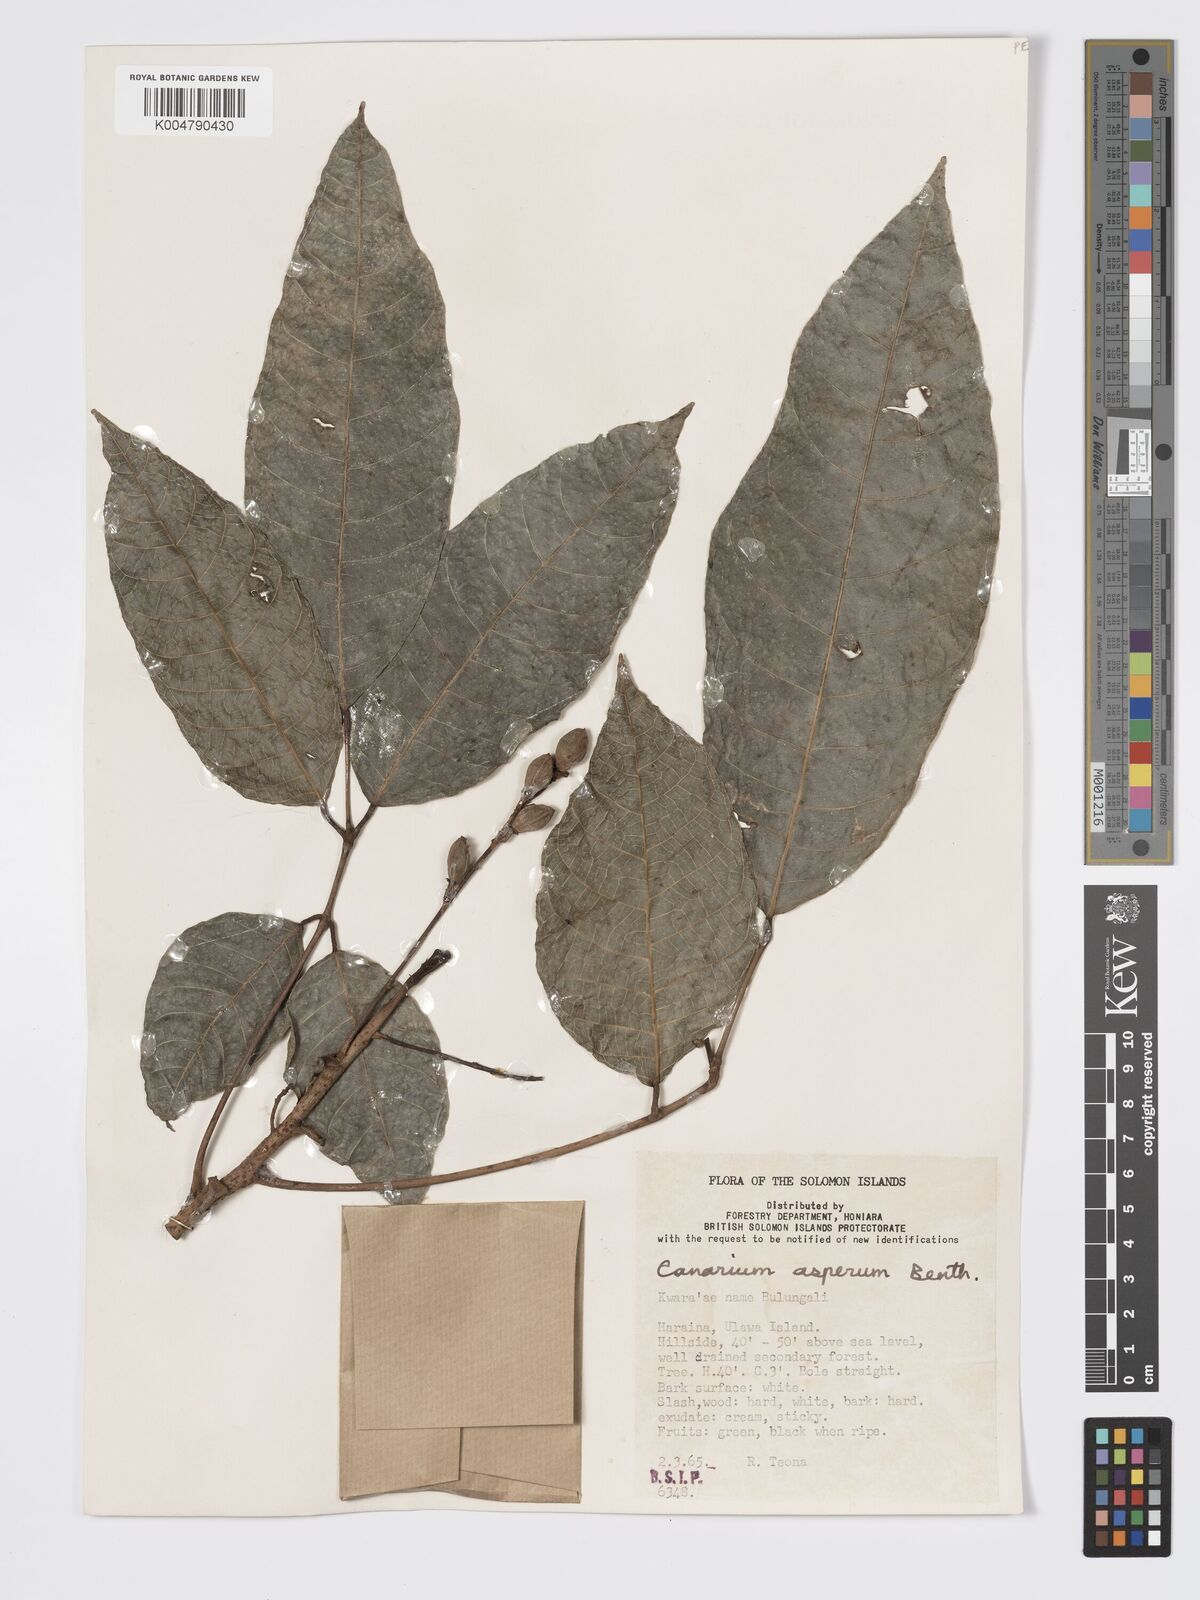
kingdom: Plantae
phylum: Tracheophyta
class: Magnoliopsida
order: Sapindales
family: Burseraceae
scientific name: Burseraceae
